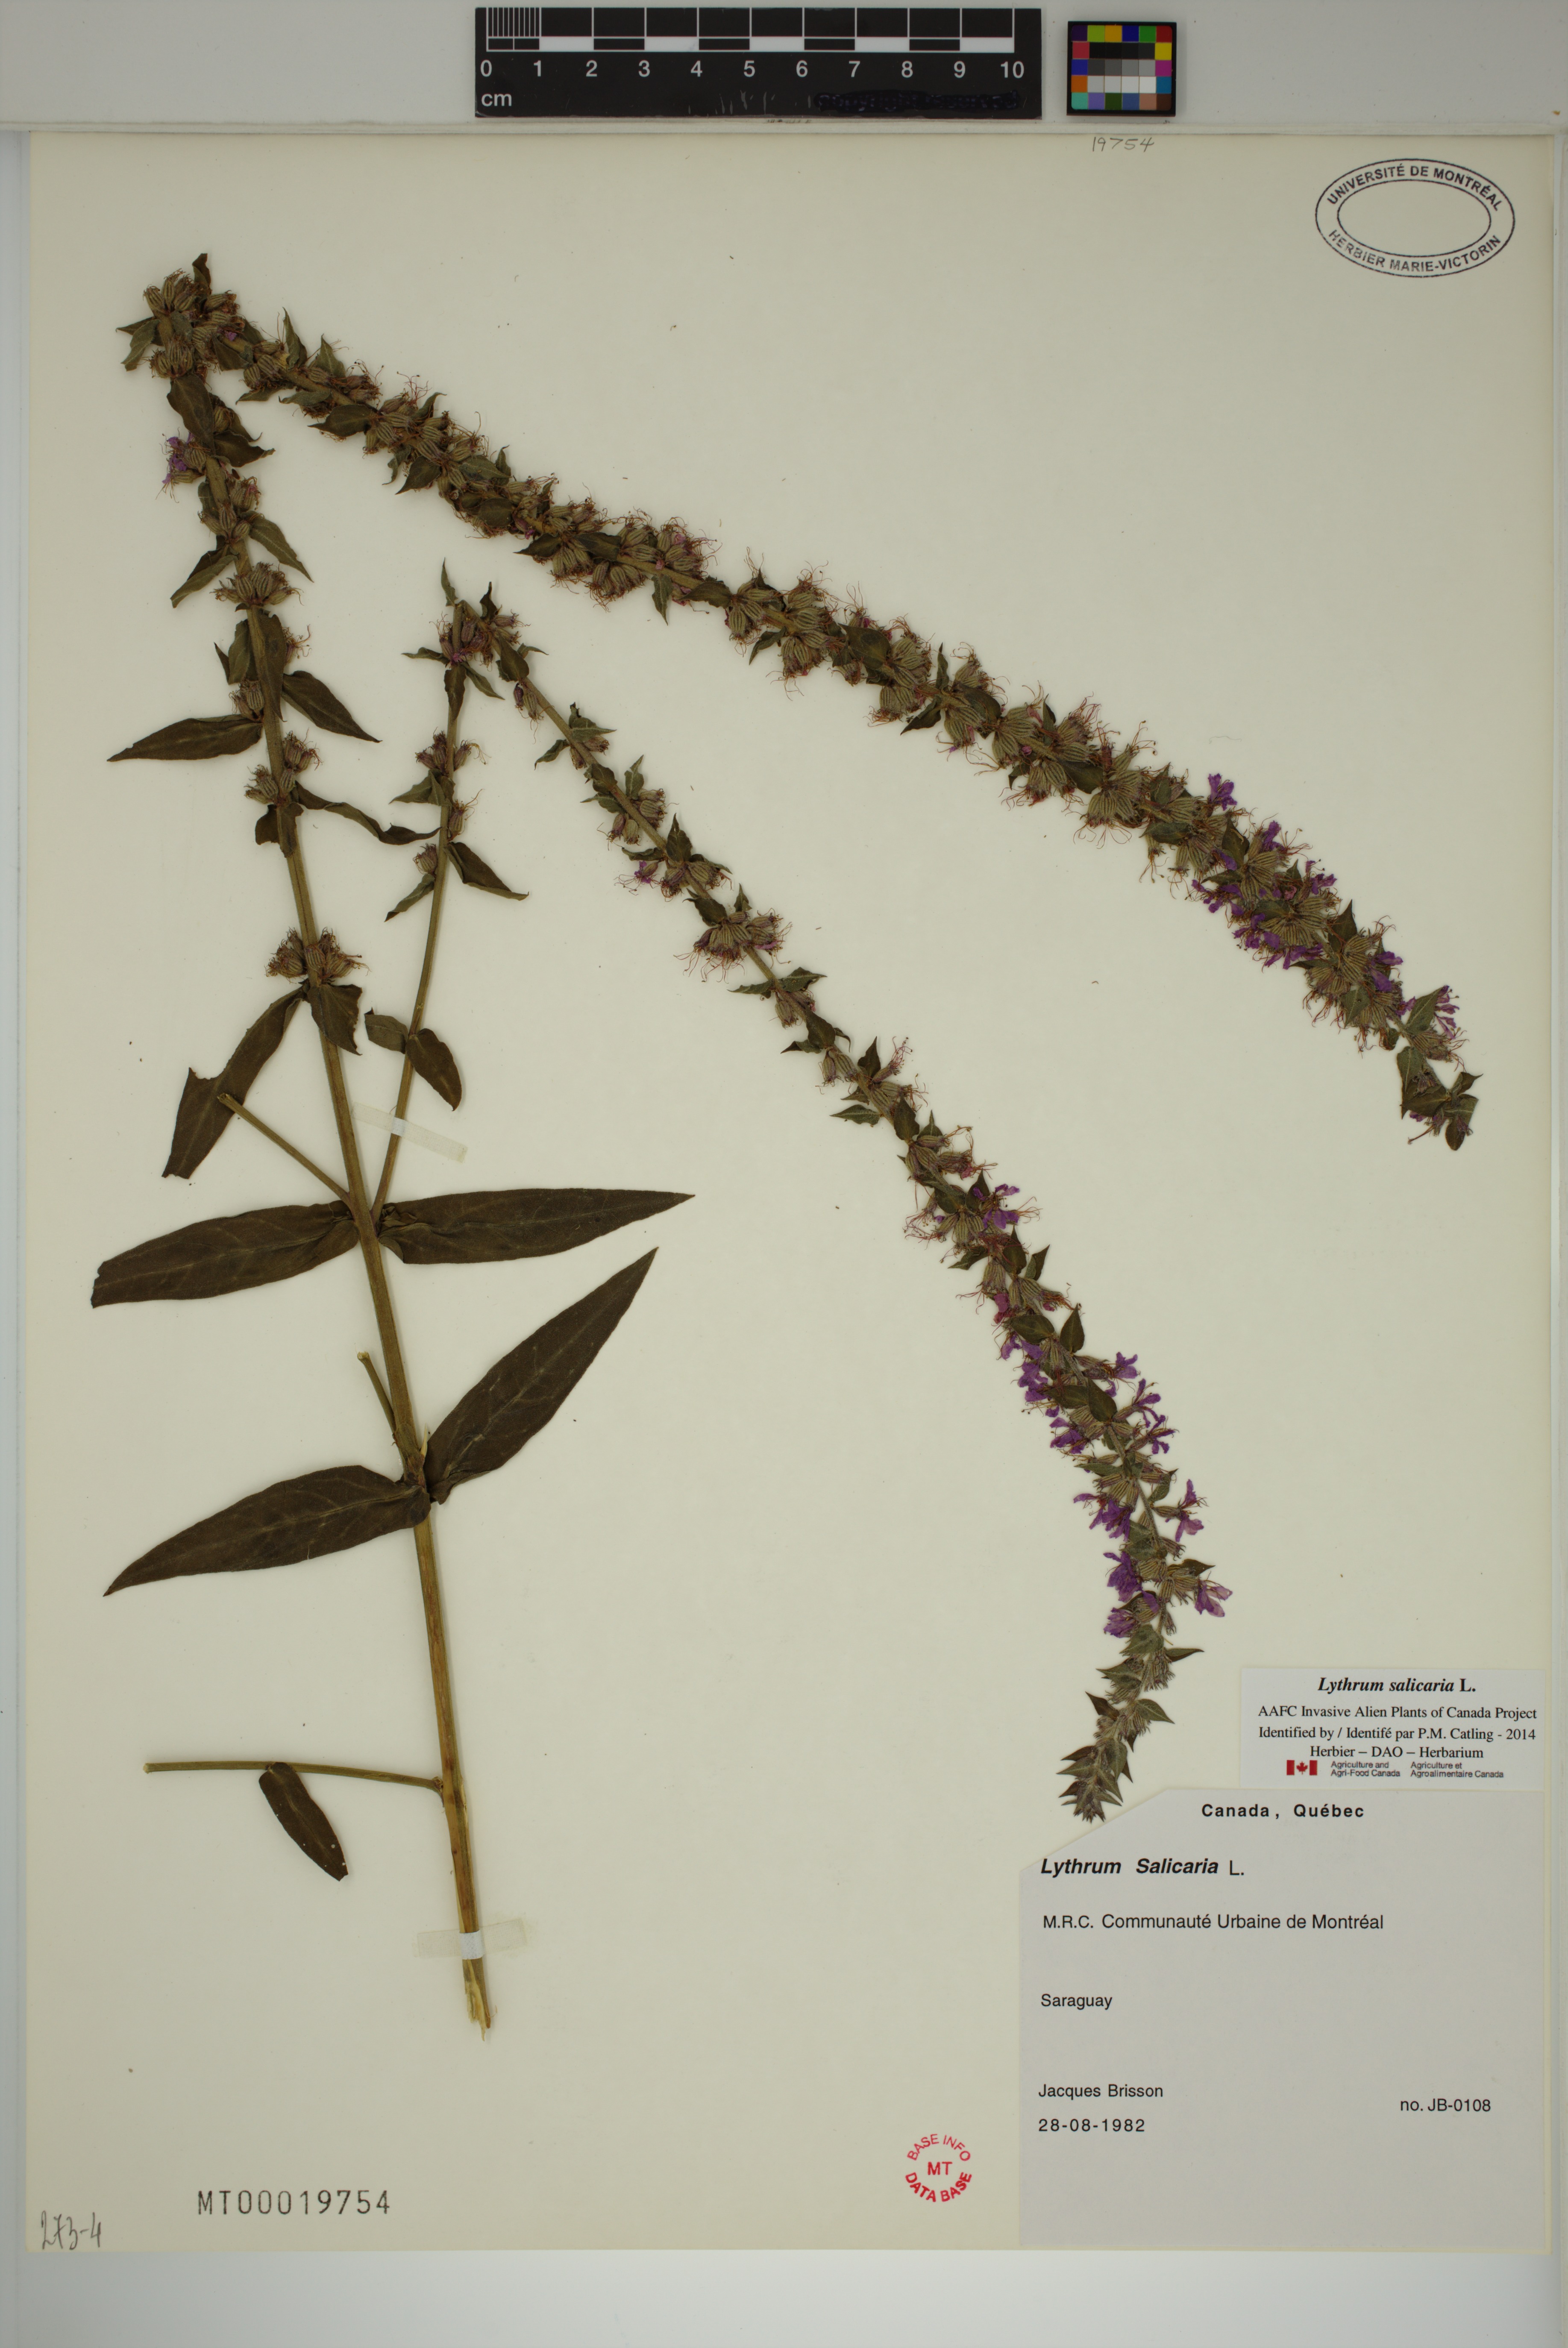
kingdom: Plantae
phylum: Tracheophyta
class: Magnoliopsida
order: Myrtales
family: Lythraceae
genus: Lythrum
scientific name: Lythrum salicaria
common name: Purple loosestrife
